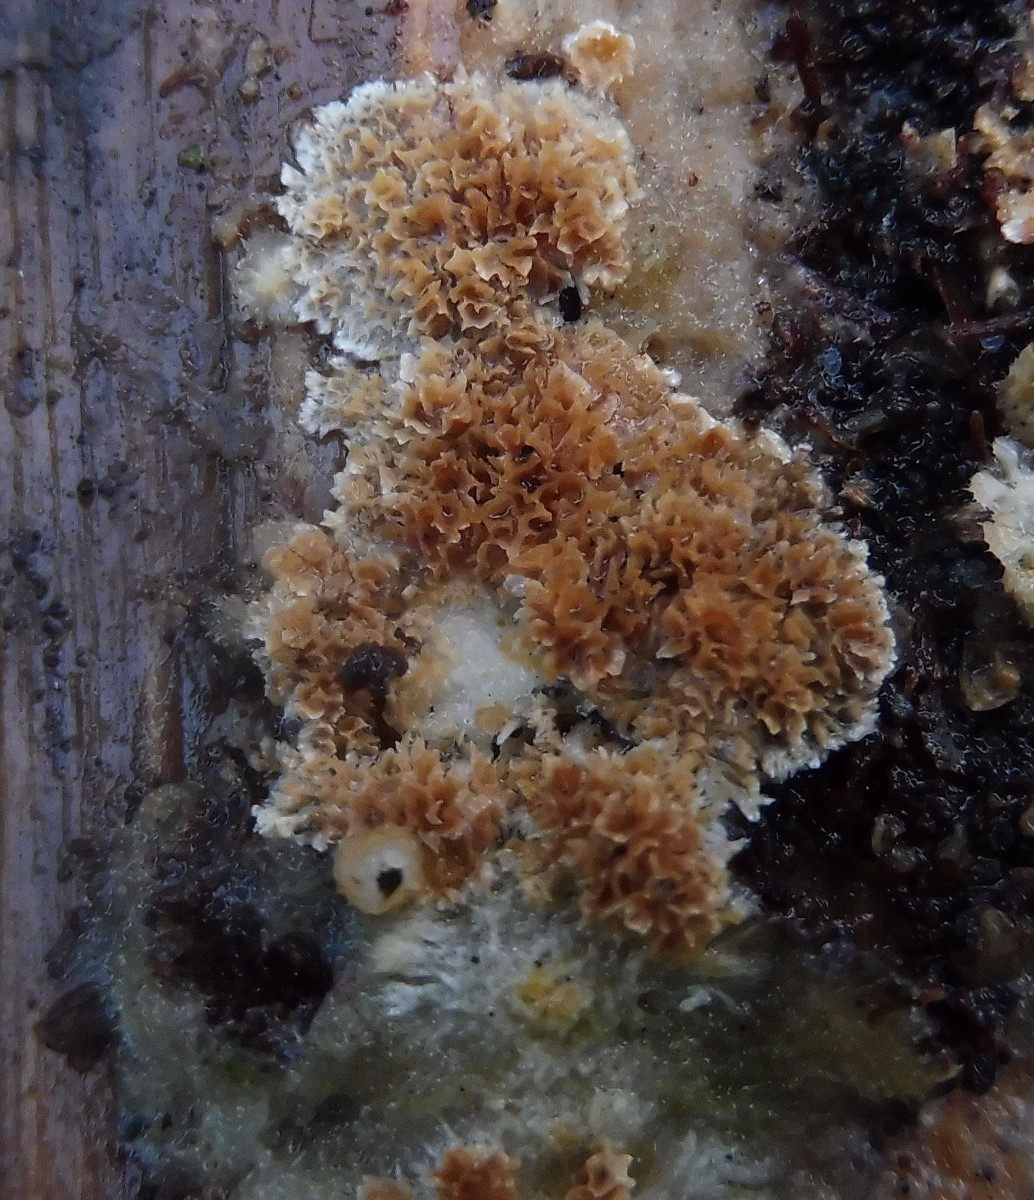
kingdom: Plantae
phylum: Bryophyta
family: Agaricomycetidae
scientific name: Agaricomycetidae
